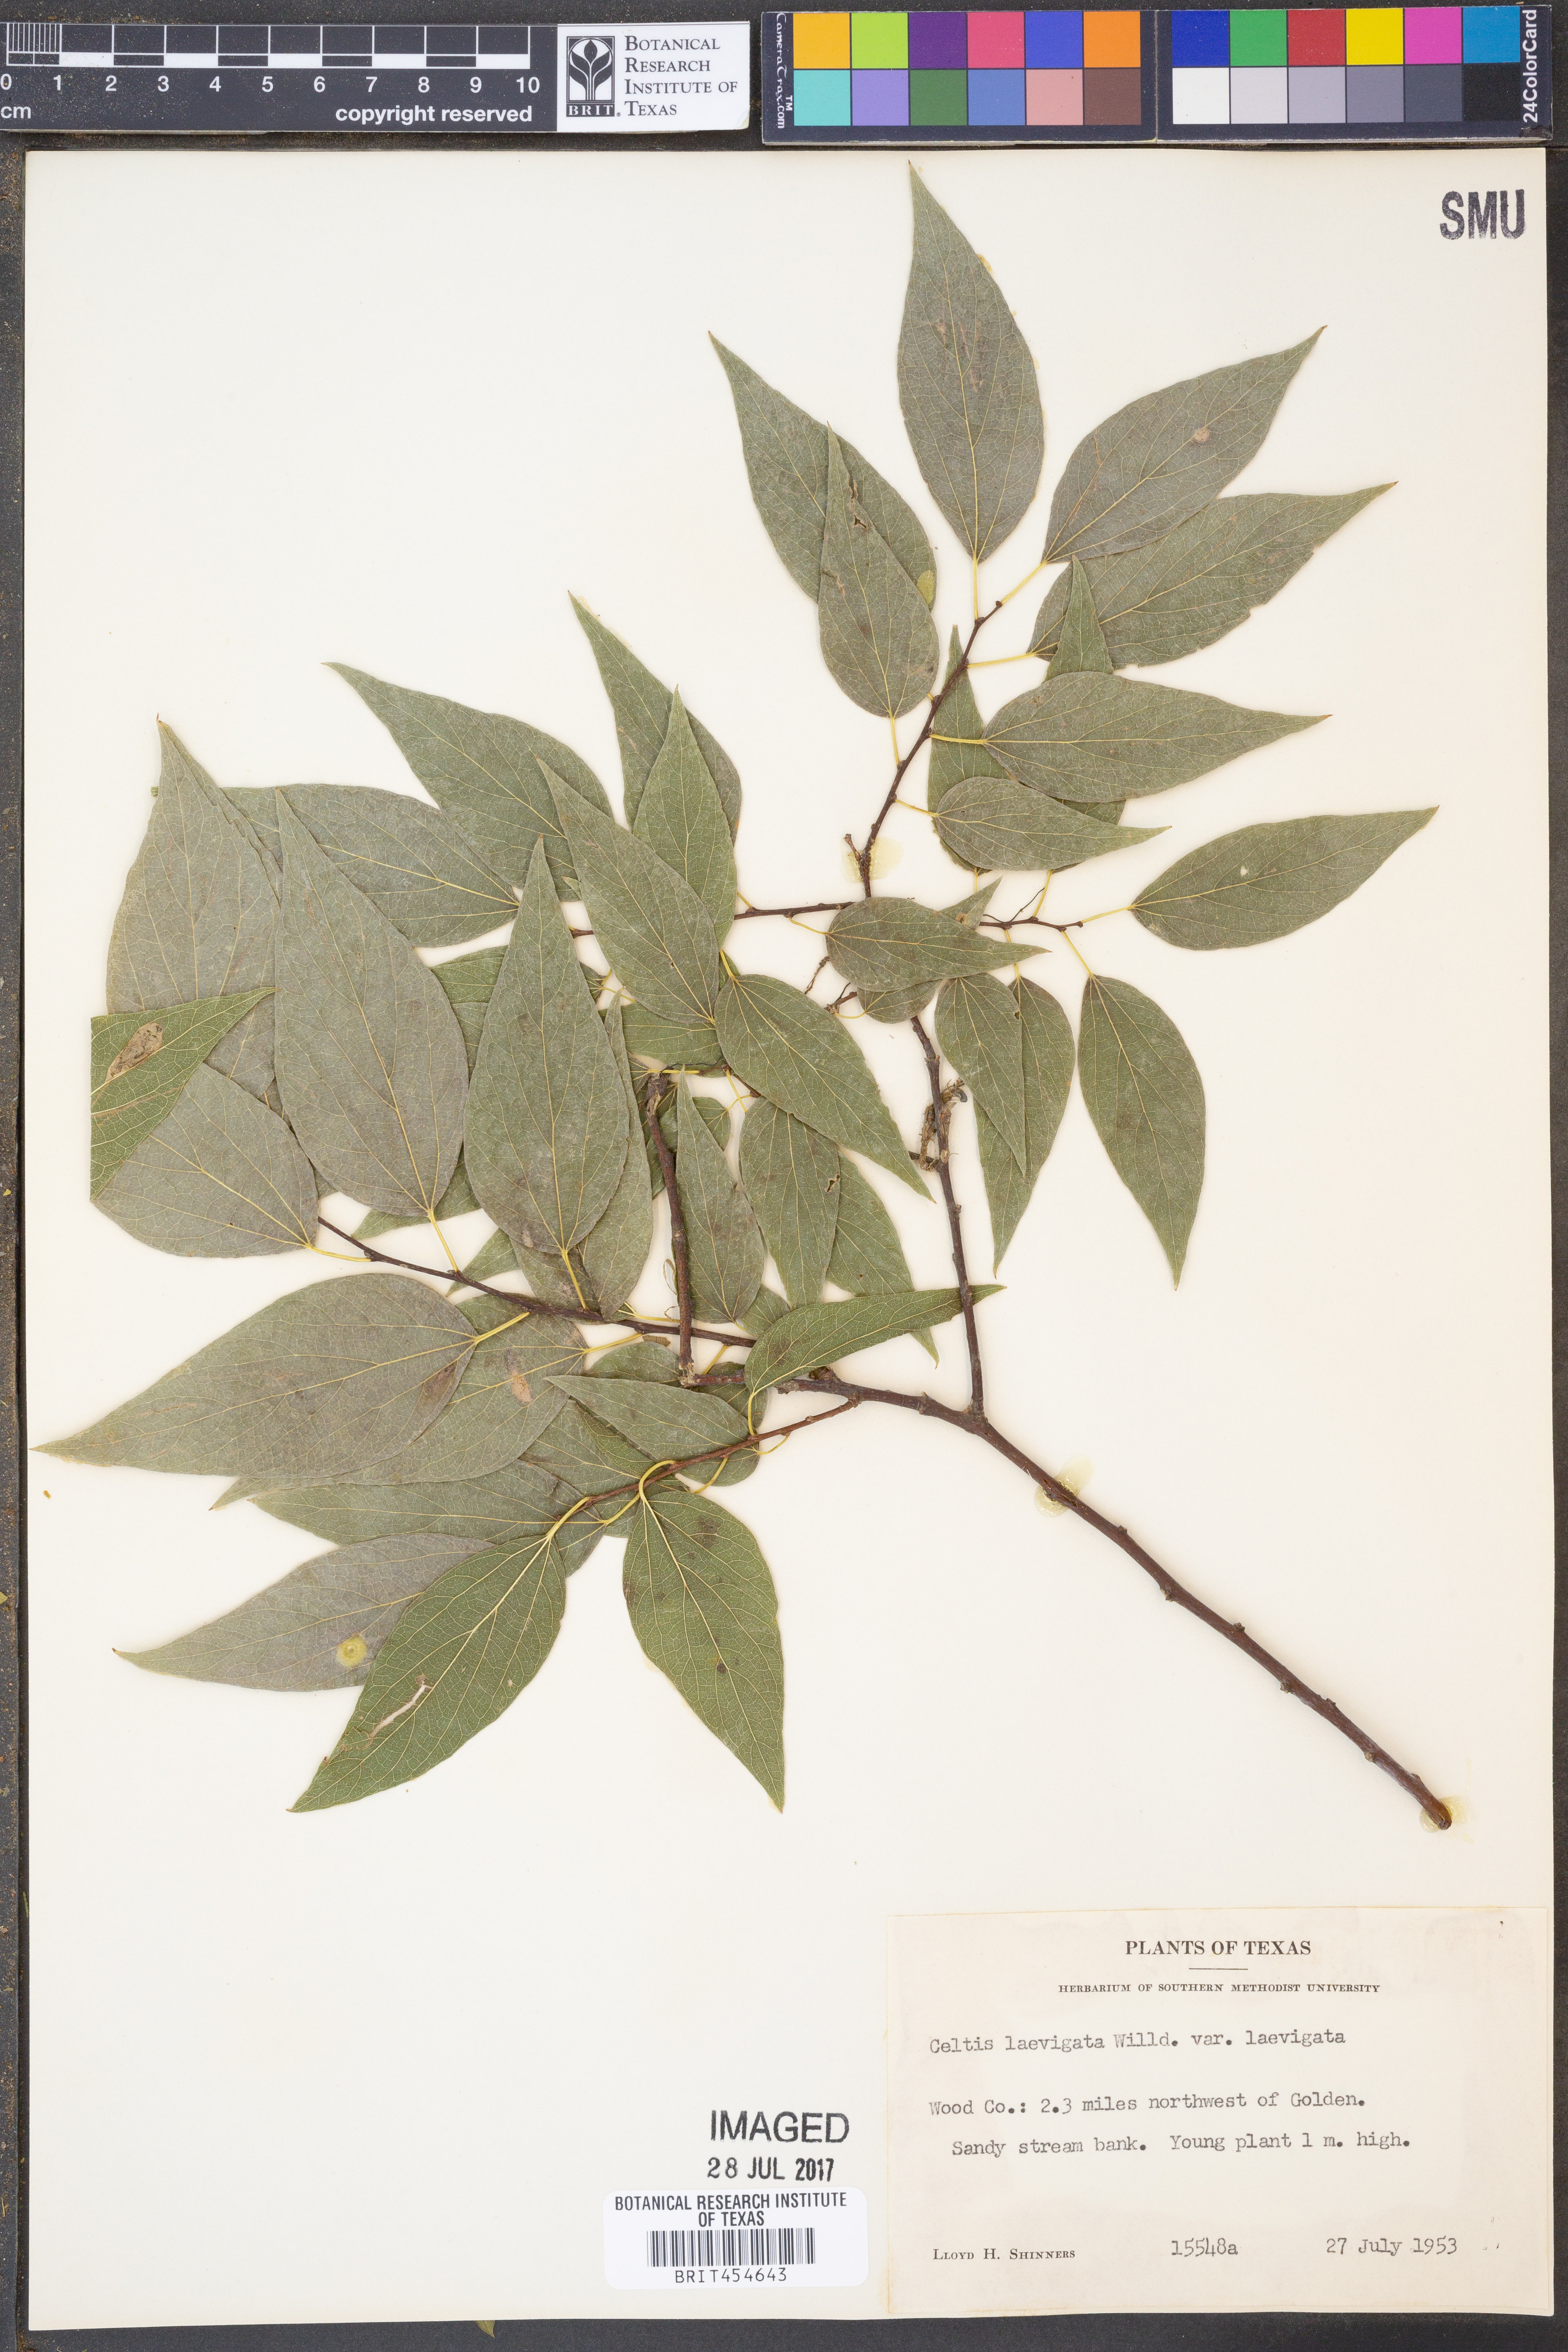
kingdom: Plantae
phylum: Tracheophyta
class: Magnoliopsida
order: Rosales
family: Cannabaceae
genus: Celtis
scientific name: Celtis laevigata
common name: Sugarberry
